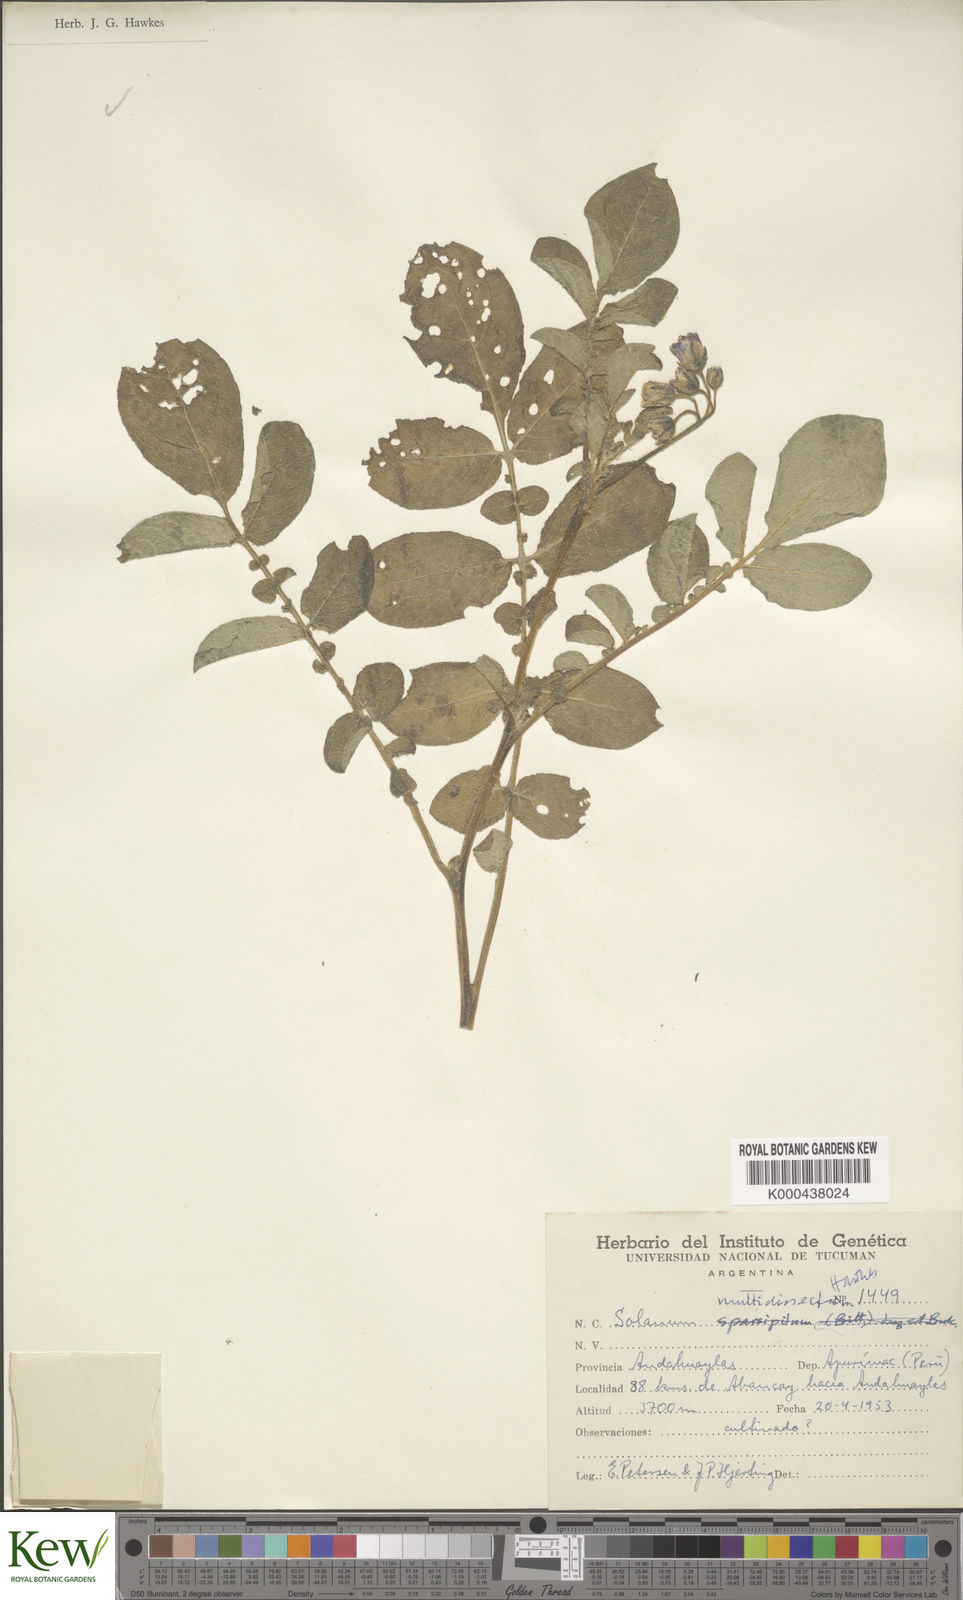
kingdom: Plantae
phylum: Tracheophyta
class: Magnoliopsida
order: Solanales
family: Solanaceae
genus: Solanum
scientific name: Solanum candolleanum
